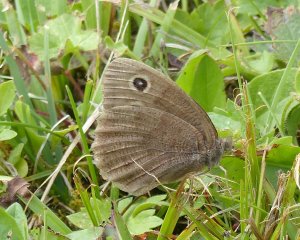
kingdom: Animalia
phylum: Arthropoda
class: Insecta
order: Lepidoptera
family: Nymphalidae
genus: Cercyonis
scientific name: Cercyonis pegala
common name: Common Wood-Nymph
